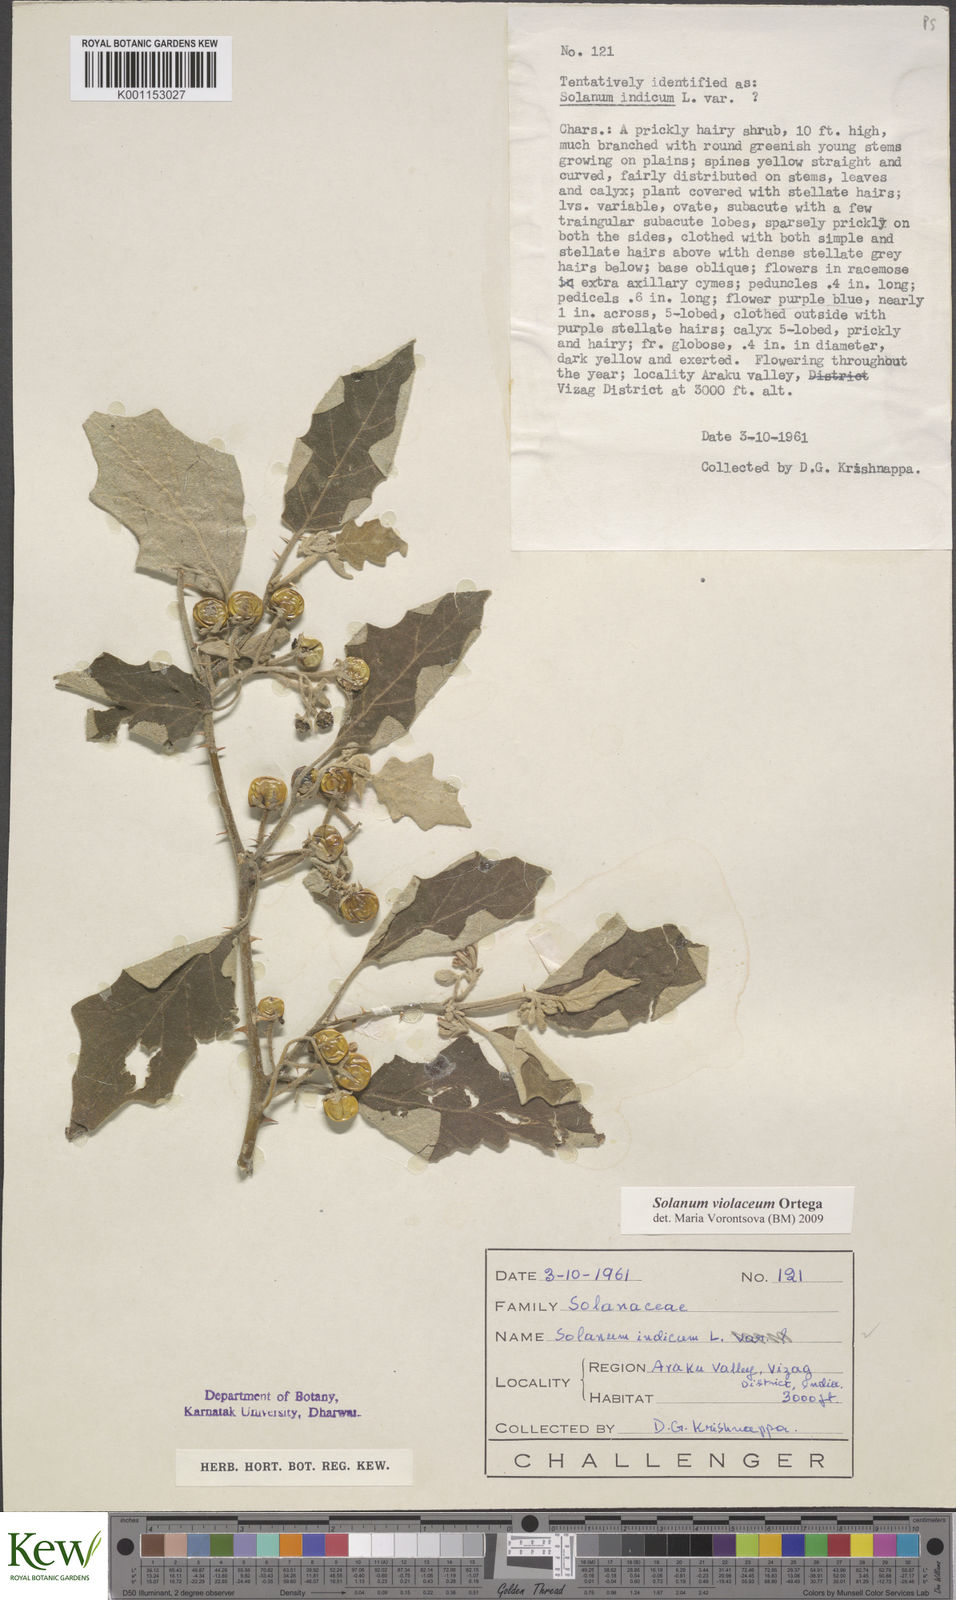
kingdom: Plantae
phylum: Tracheophyta
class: Magnoliopsida
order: Solanales
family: Solanaceae
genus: Solanum
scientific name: Solanum violaceum
